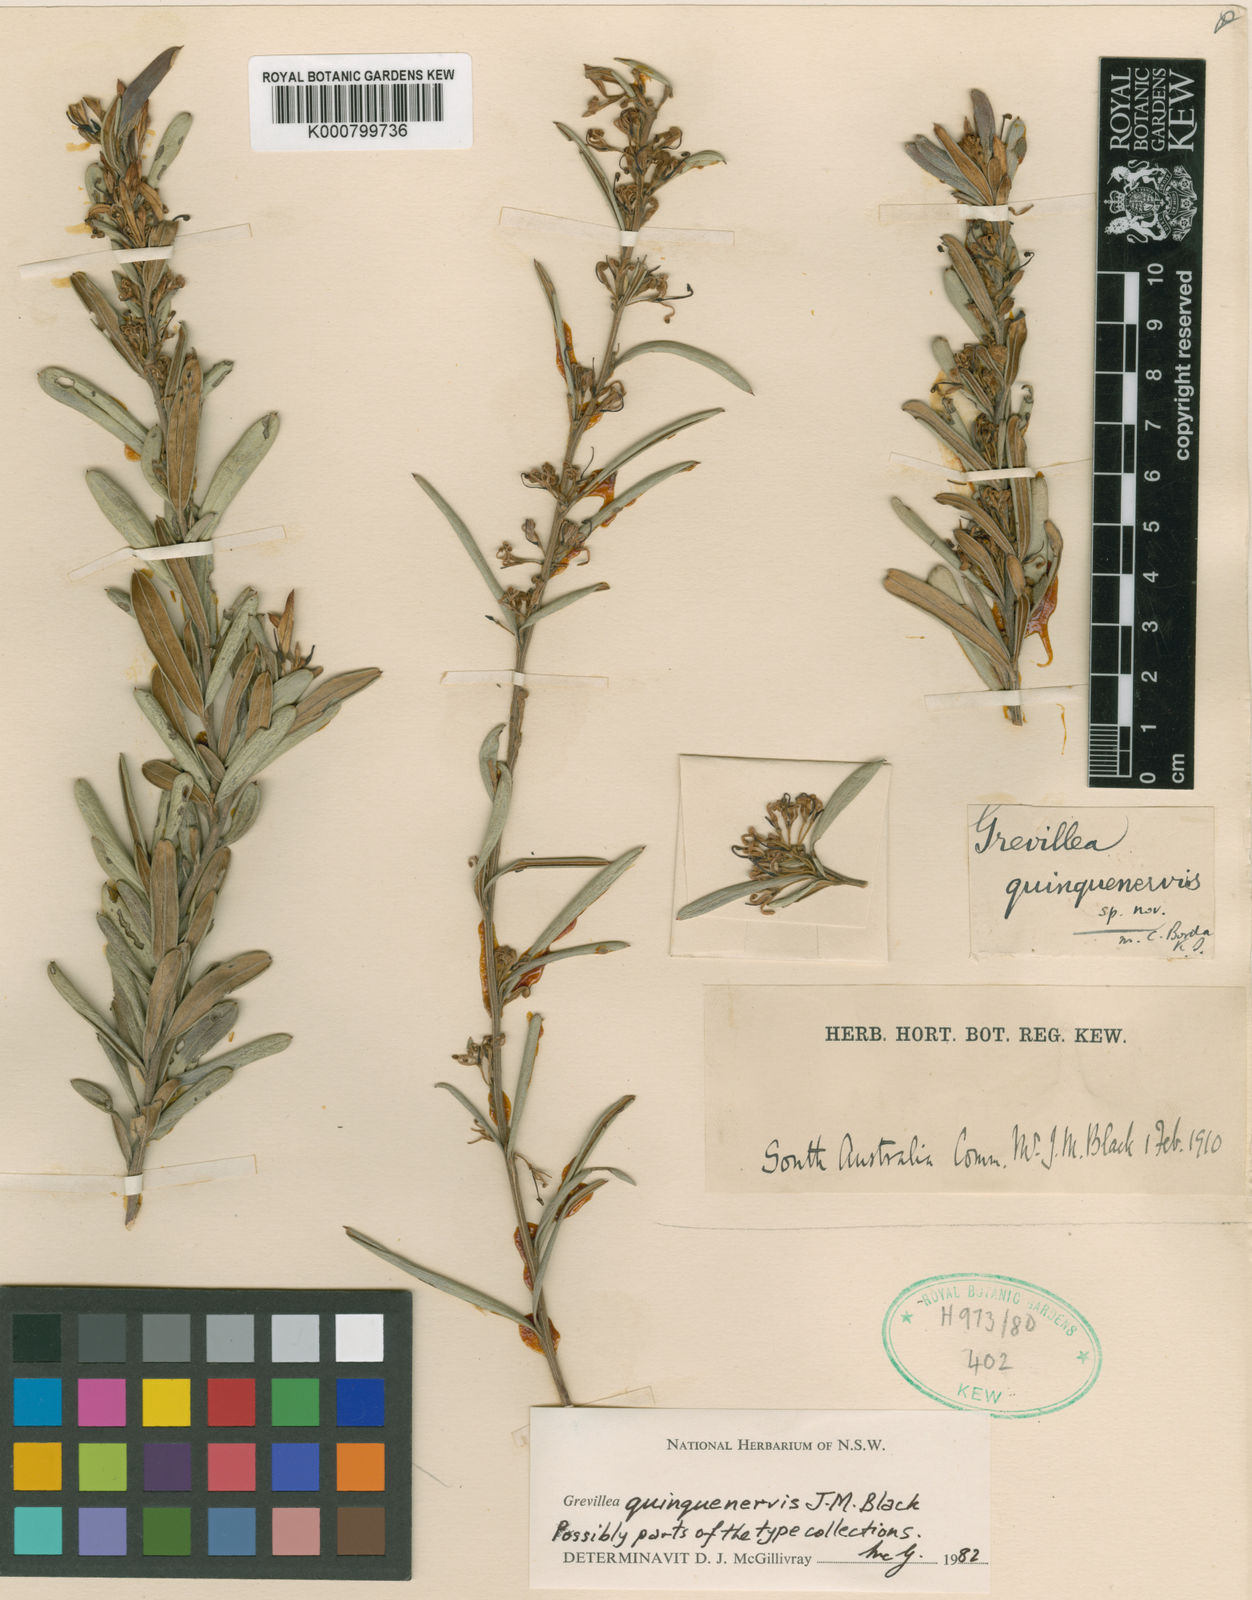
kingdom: Plantae
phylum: Tracheophyta
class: Magnoliopsida
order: Proteales
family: Proteaceae
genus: Grevillea
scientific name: Grevillea quinquenervis
